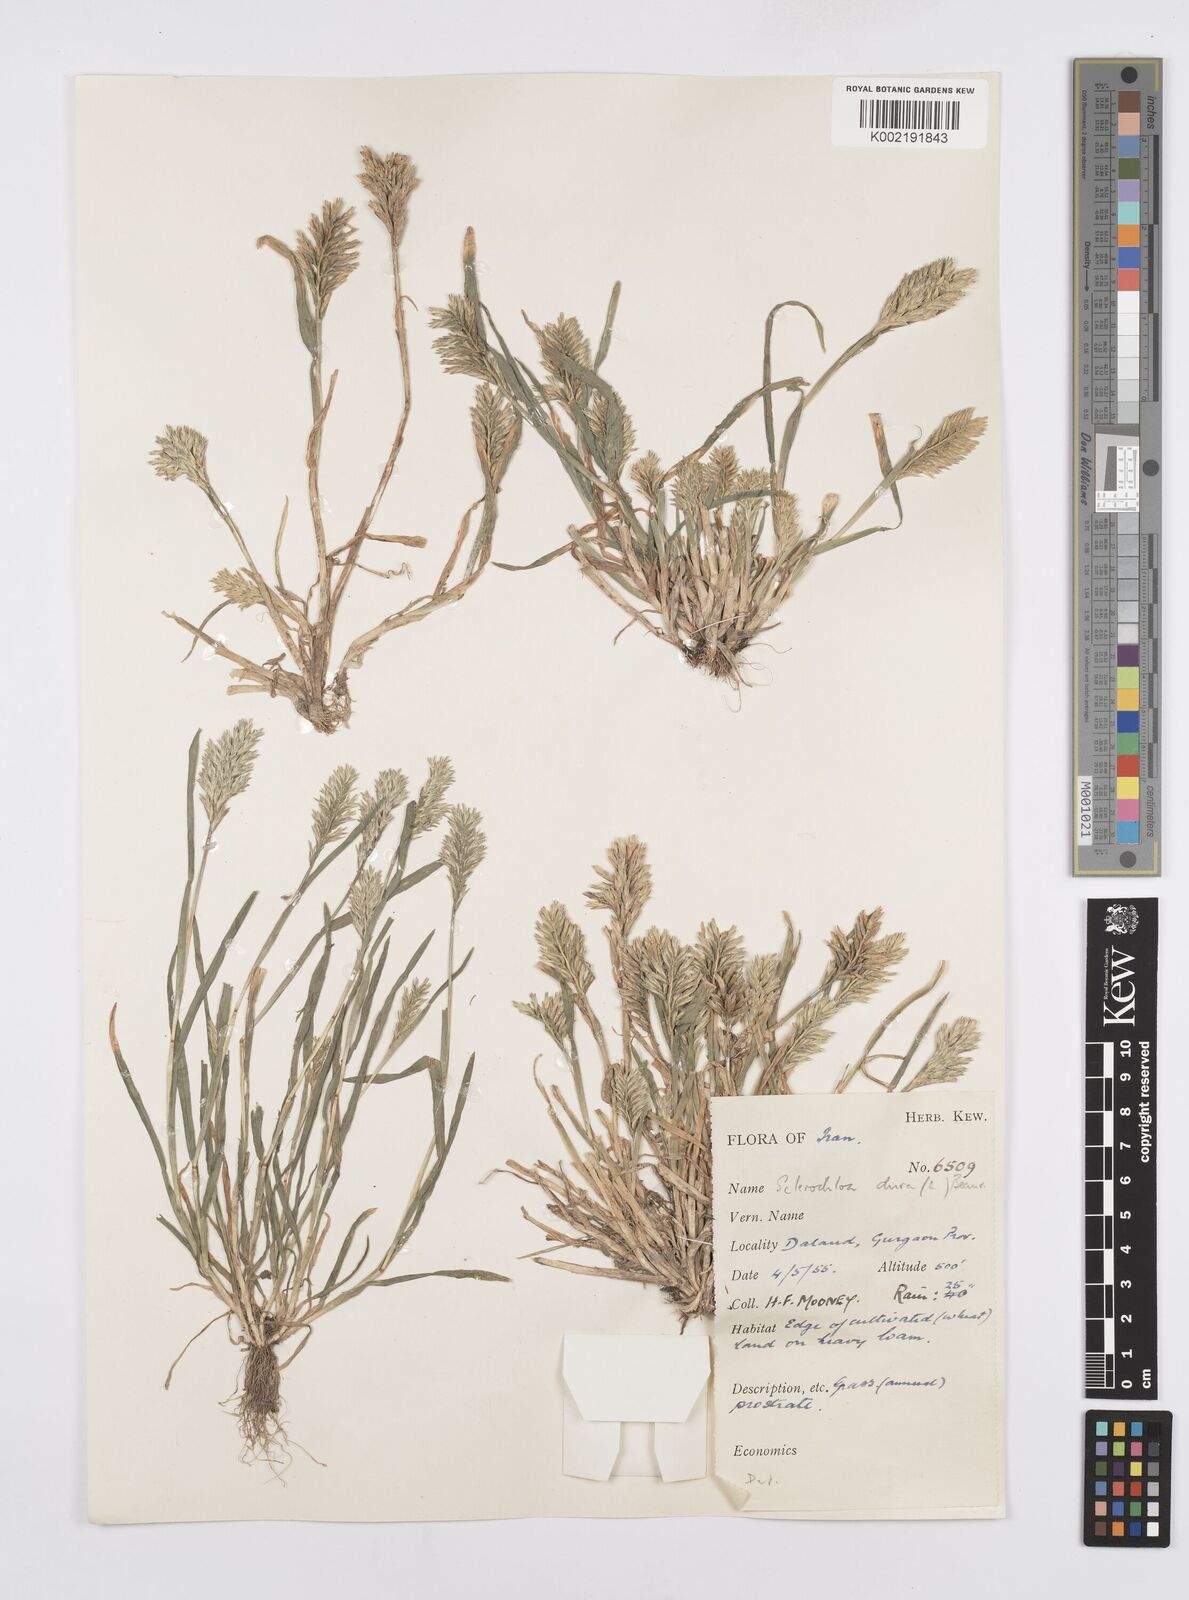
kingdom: Plantae
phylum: Tracheophyta
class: Liliopsida
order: Poales
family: Poaceae
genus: Sclerochloa
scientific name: Sclerochloa dura
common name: Common hardgrass
